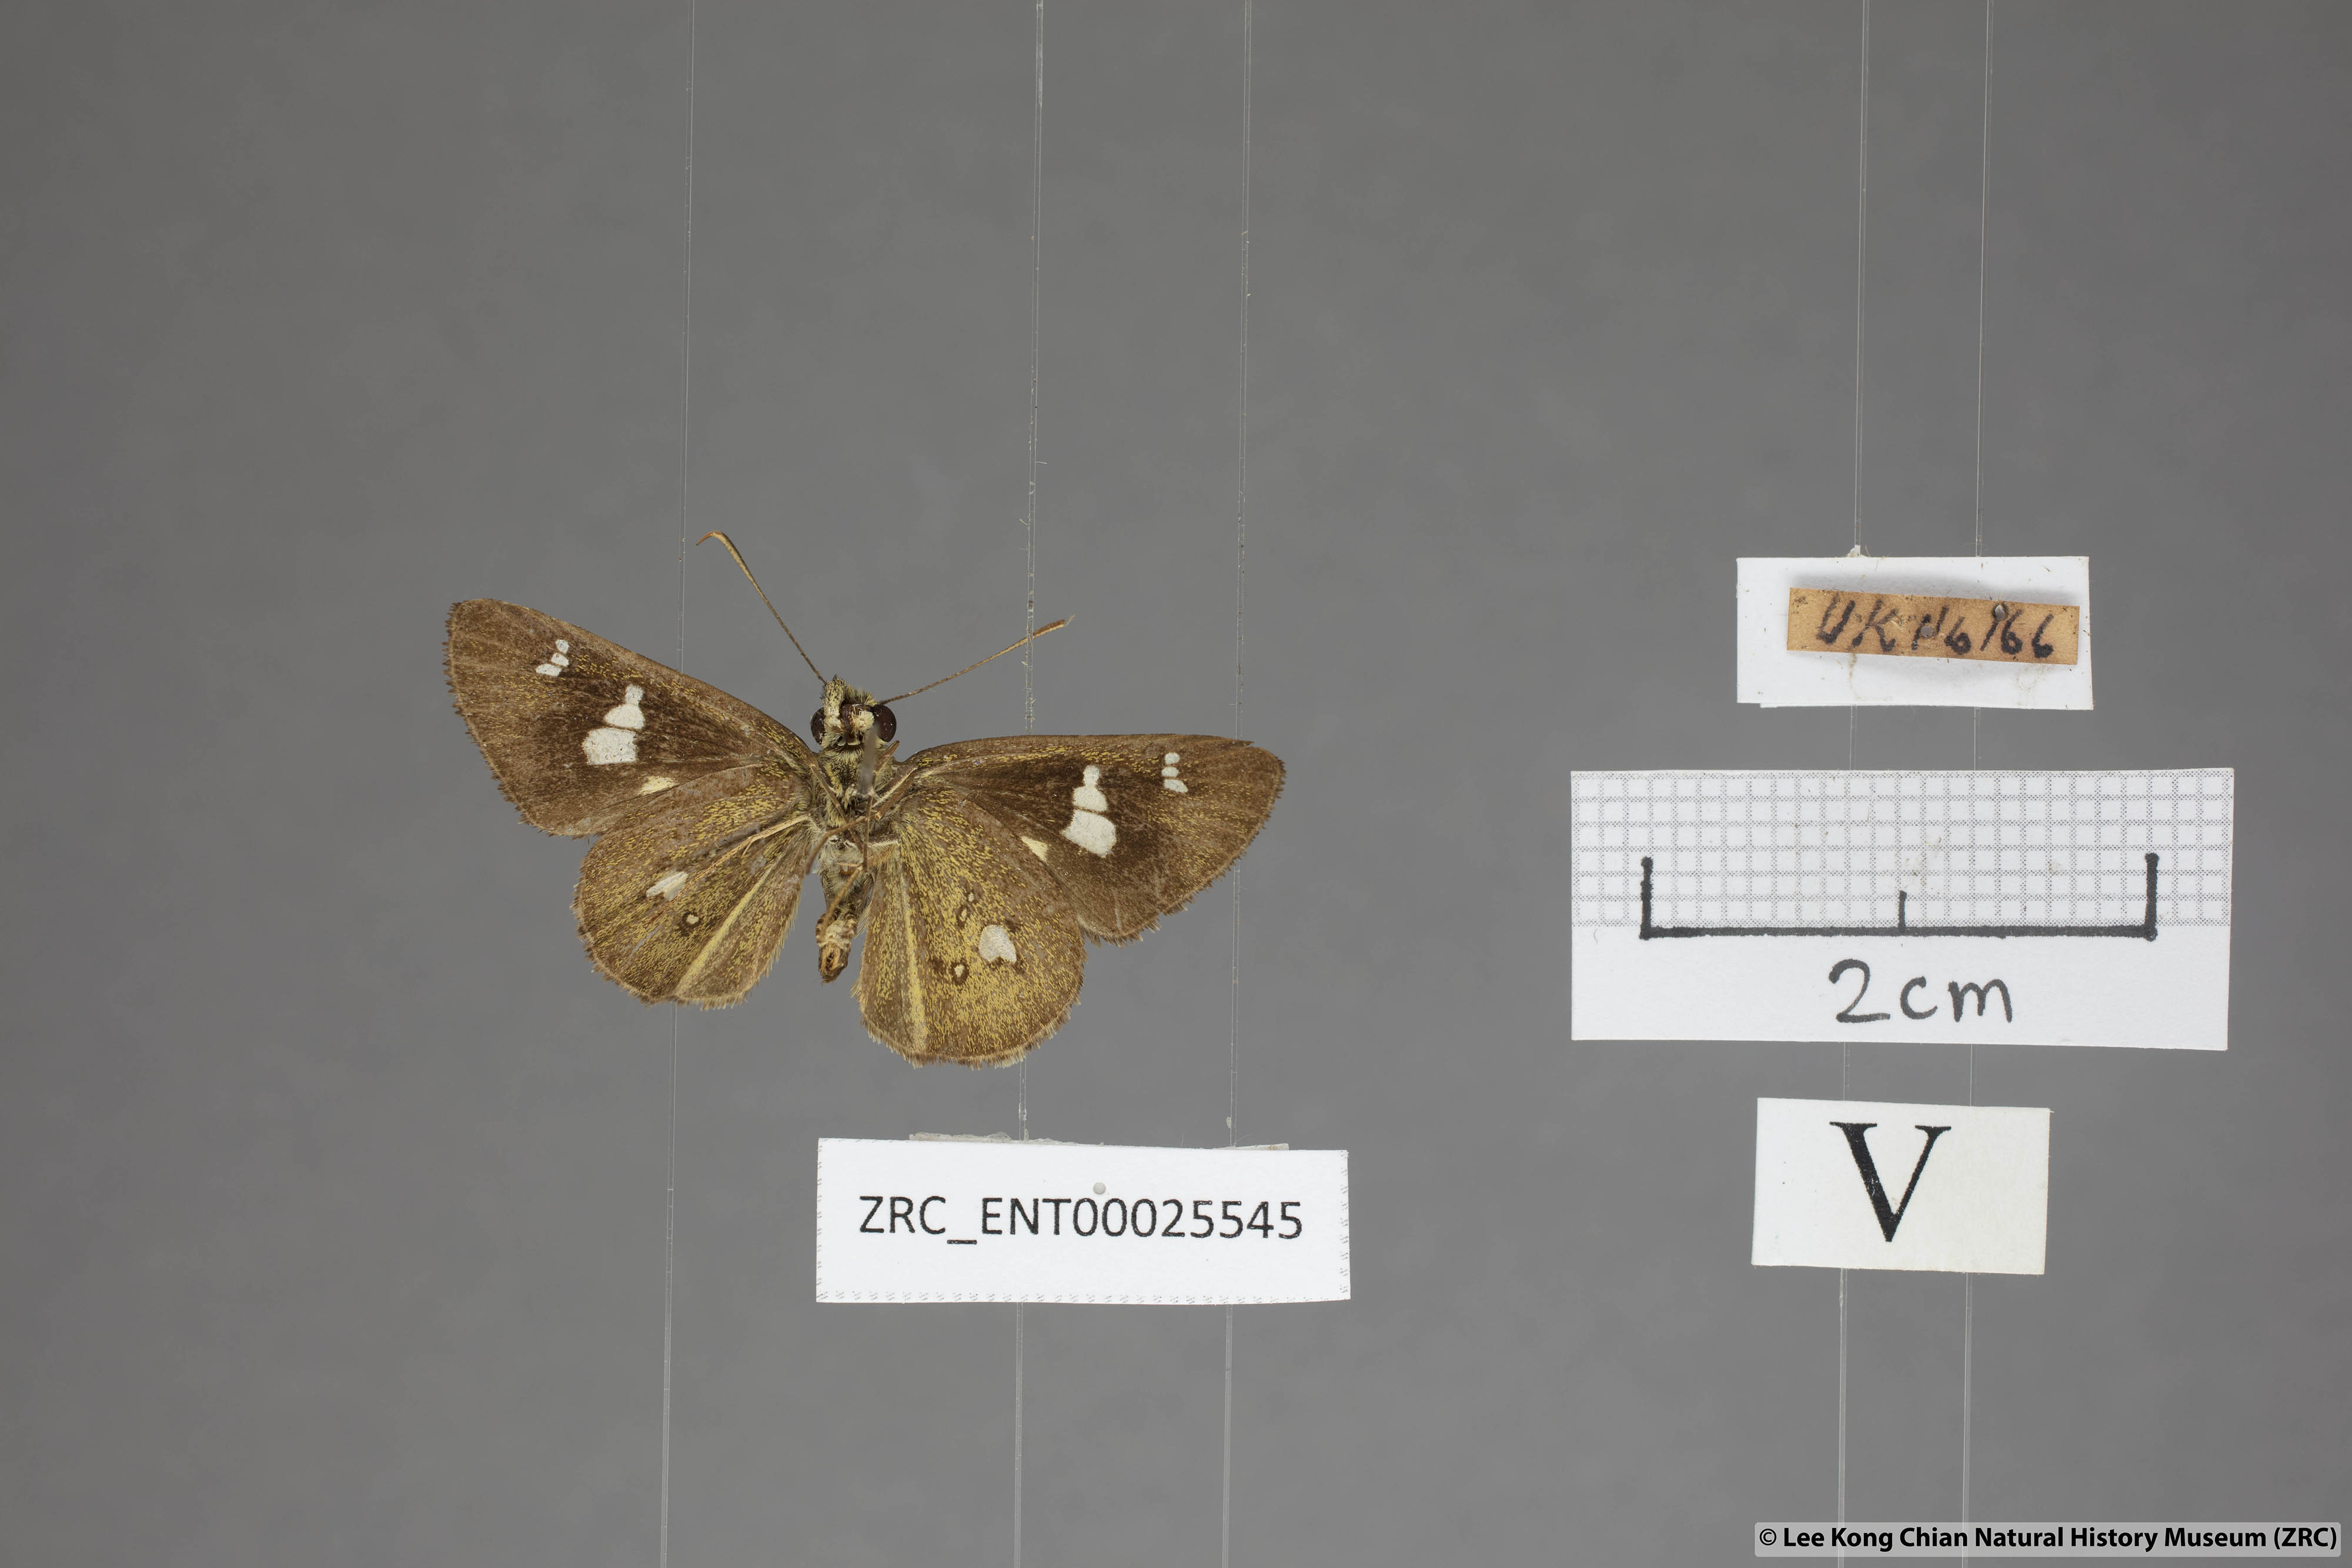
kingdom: Animalia
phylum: Arthropoda
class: Insecta
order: Lepidoptera
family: Hesperiidae
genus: Scobura
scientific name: Scobura phiditia
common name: Malay forest bob
